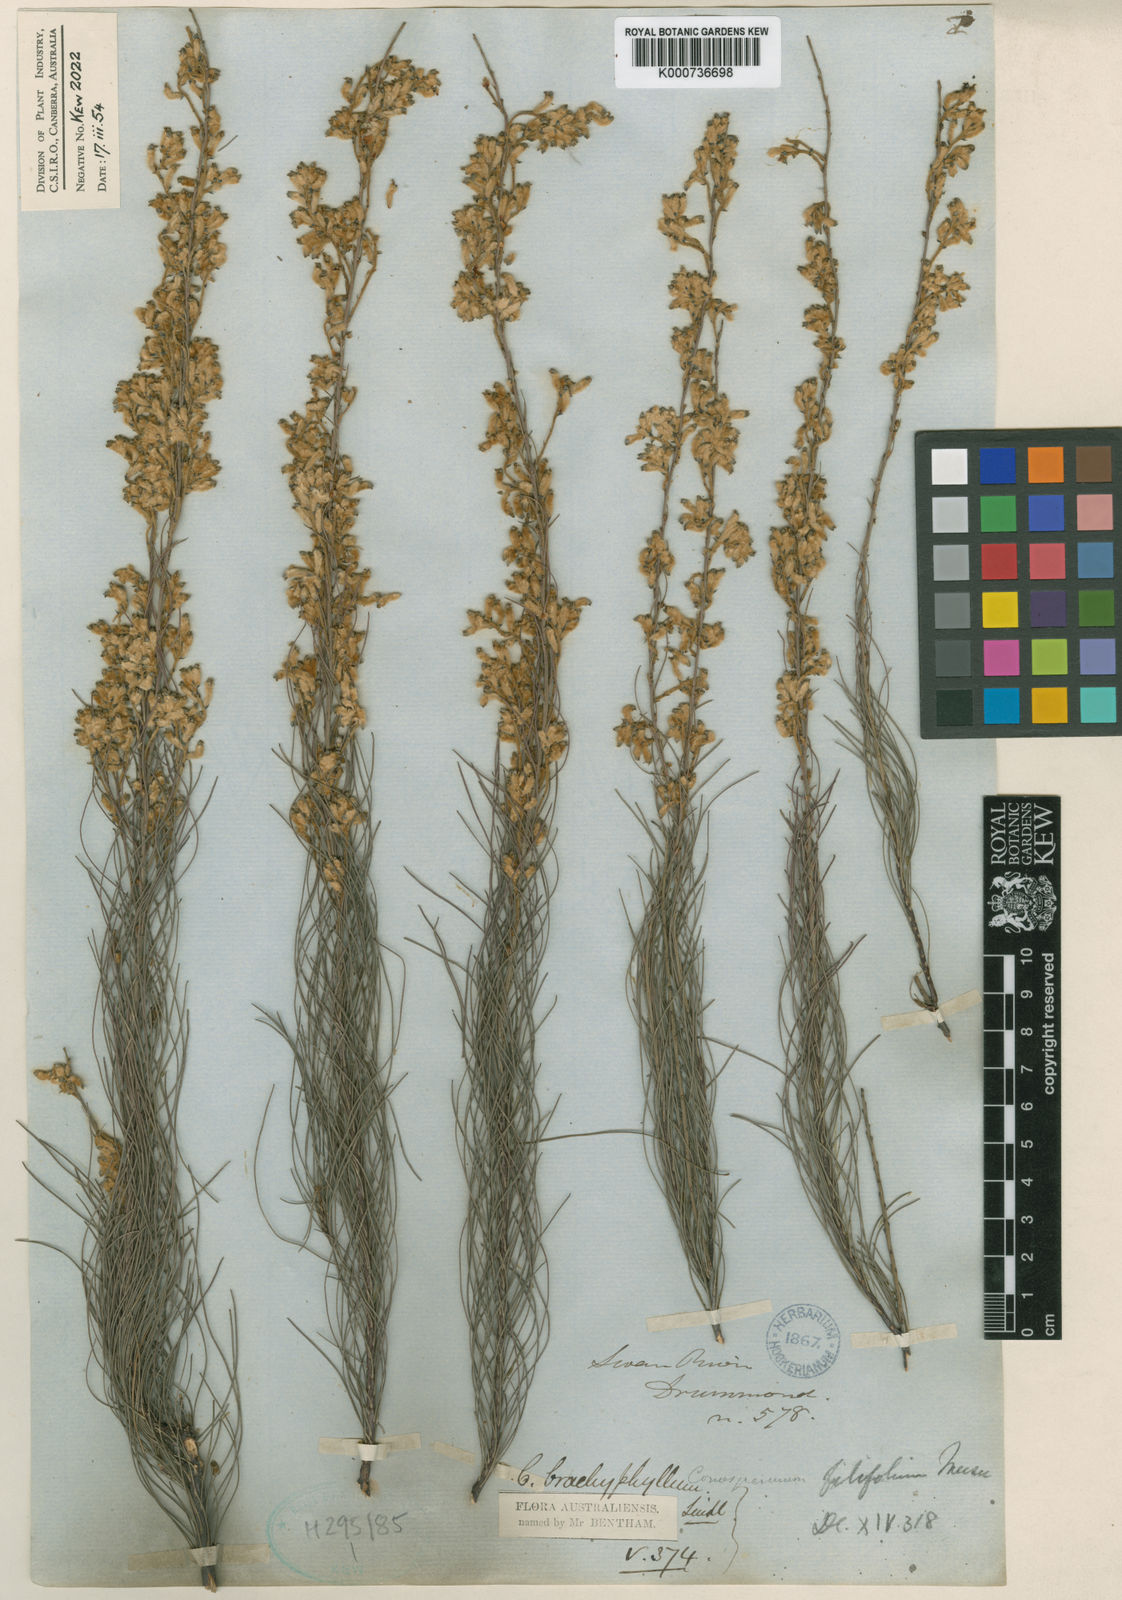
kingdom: Plantae
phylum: Tracheophyta
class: Magnoliopsida
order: Proteales
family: Proteaceae
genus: Conospermum
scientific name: Conospermum brachyphyllum
